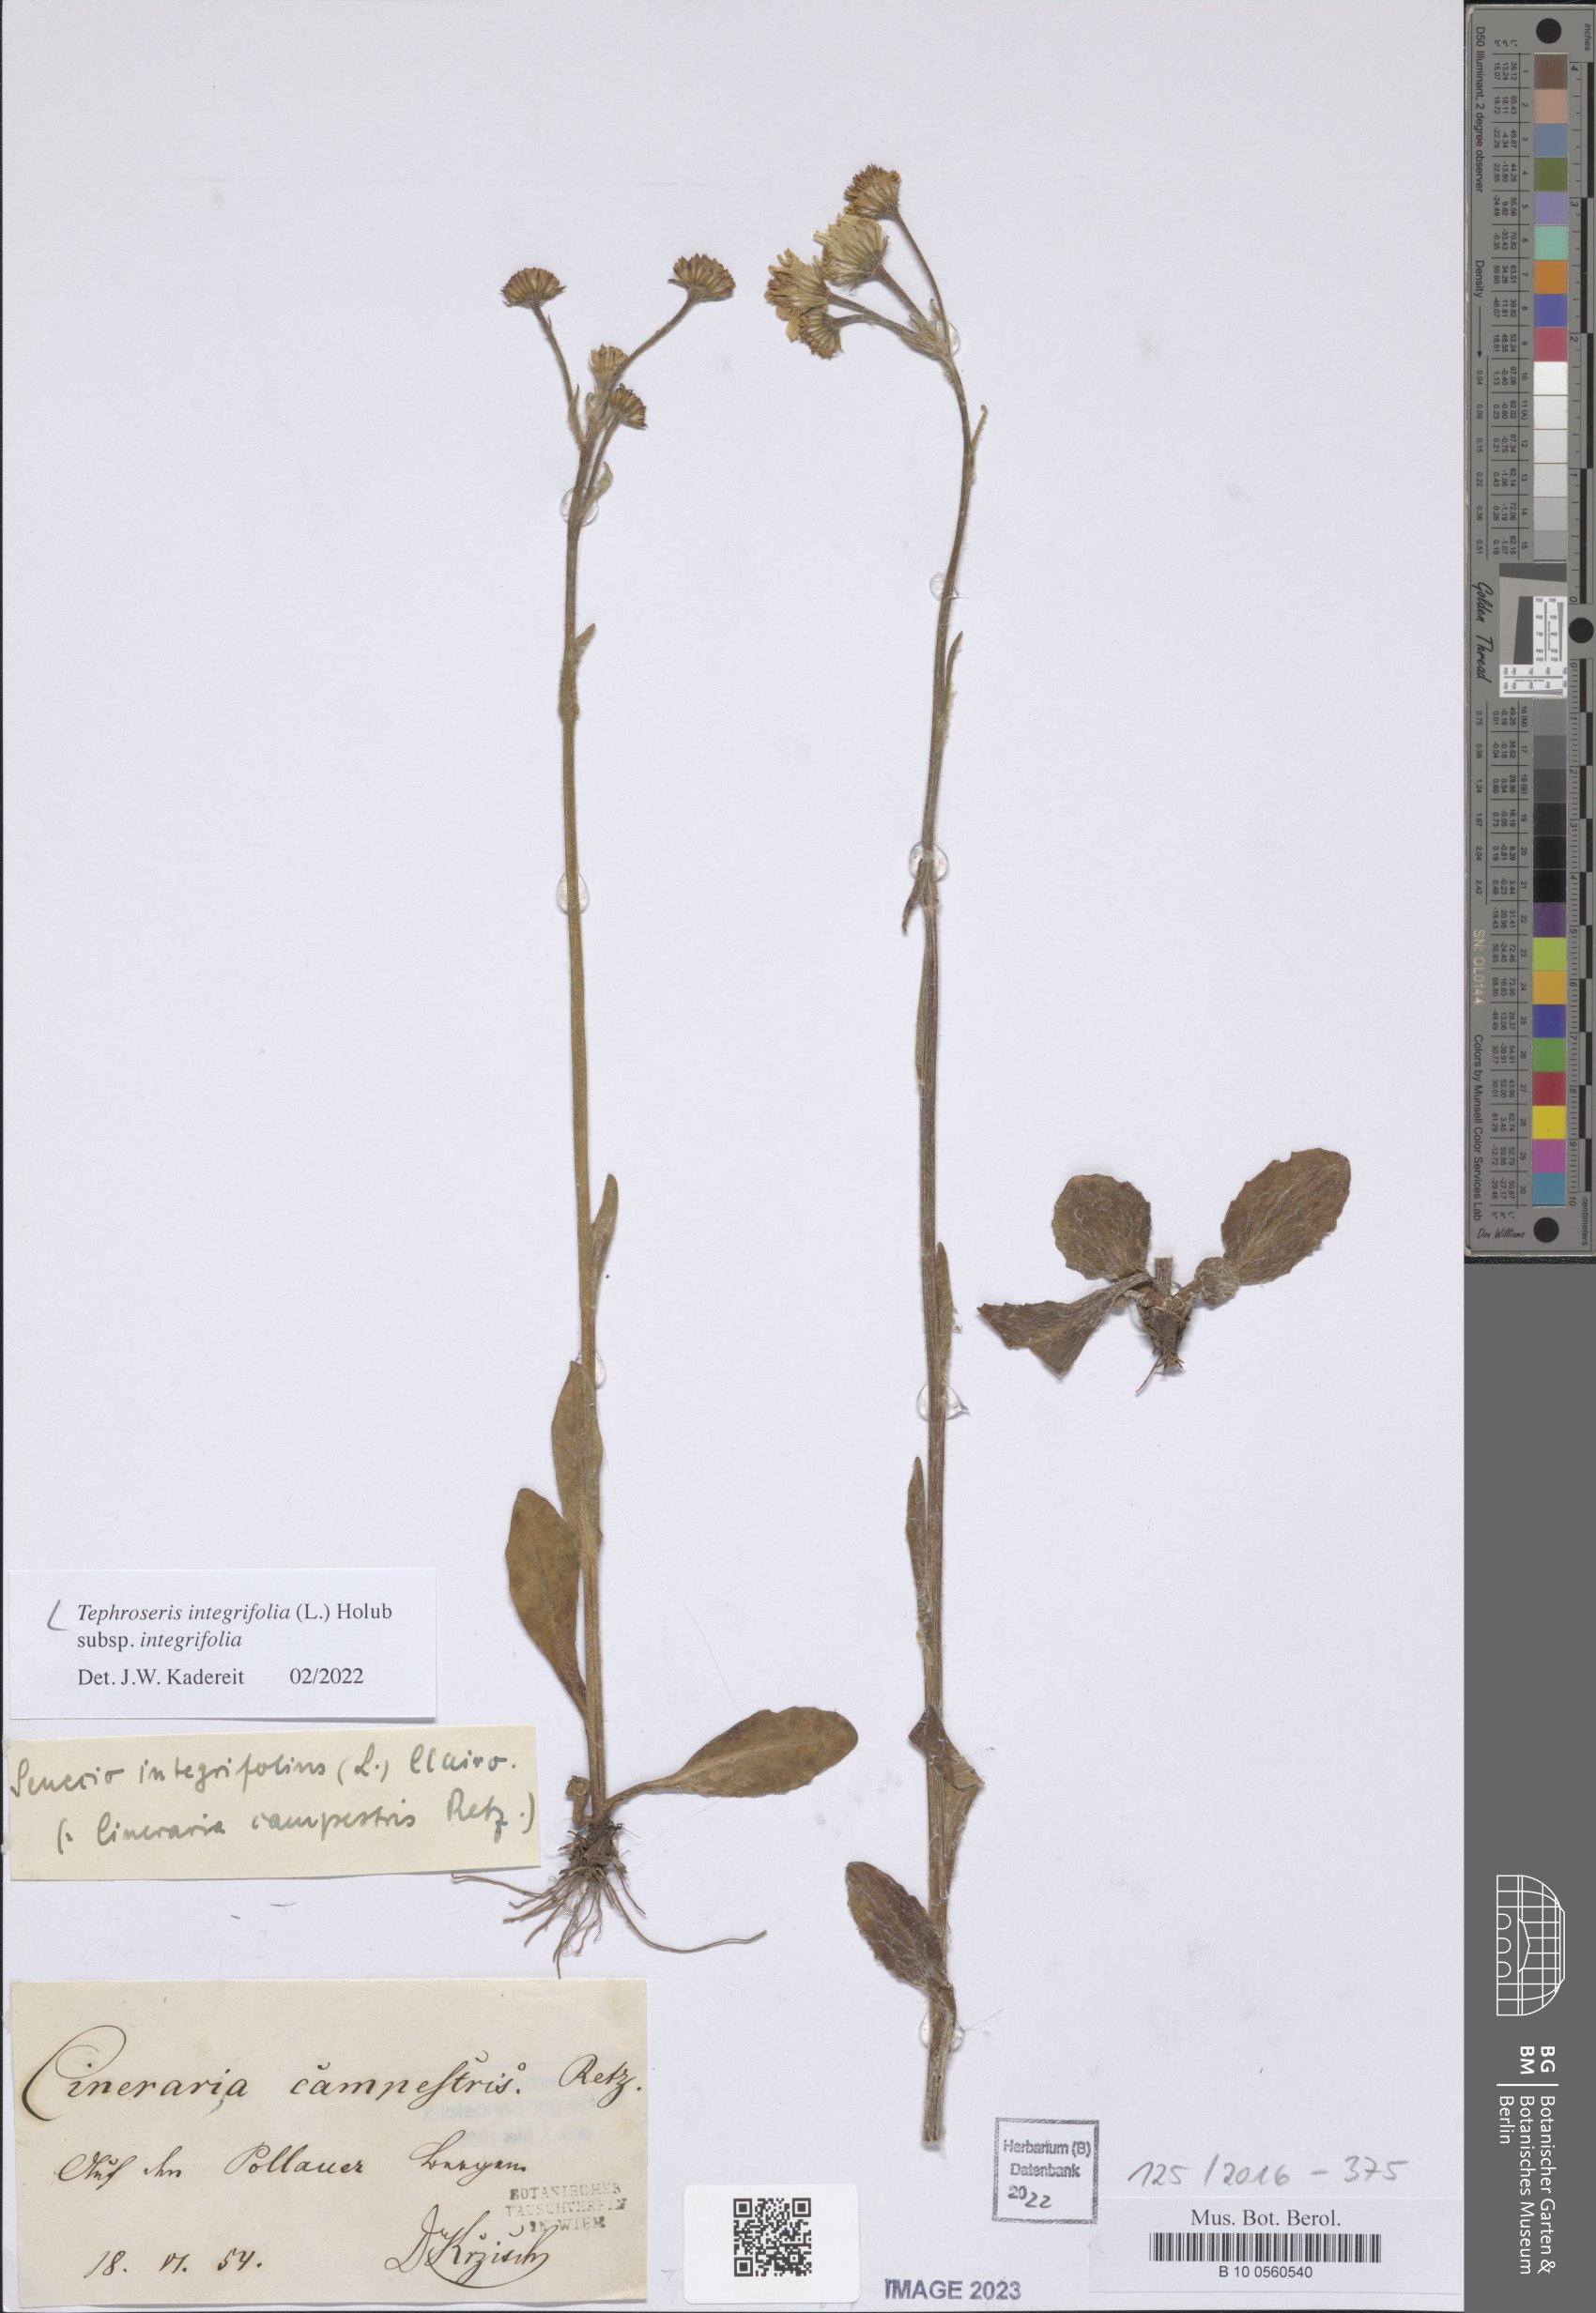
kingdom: Plantae
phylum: Tracheophyta
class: Magnoliopsida
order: Asterales
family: Asteraceae
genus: Tephroseris
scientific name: Tephroseris integrifolia
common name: Field fleawort
